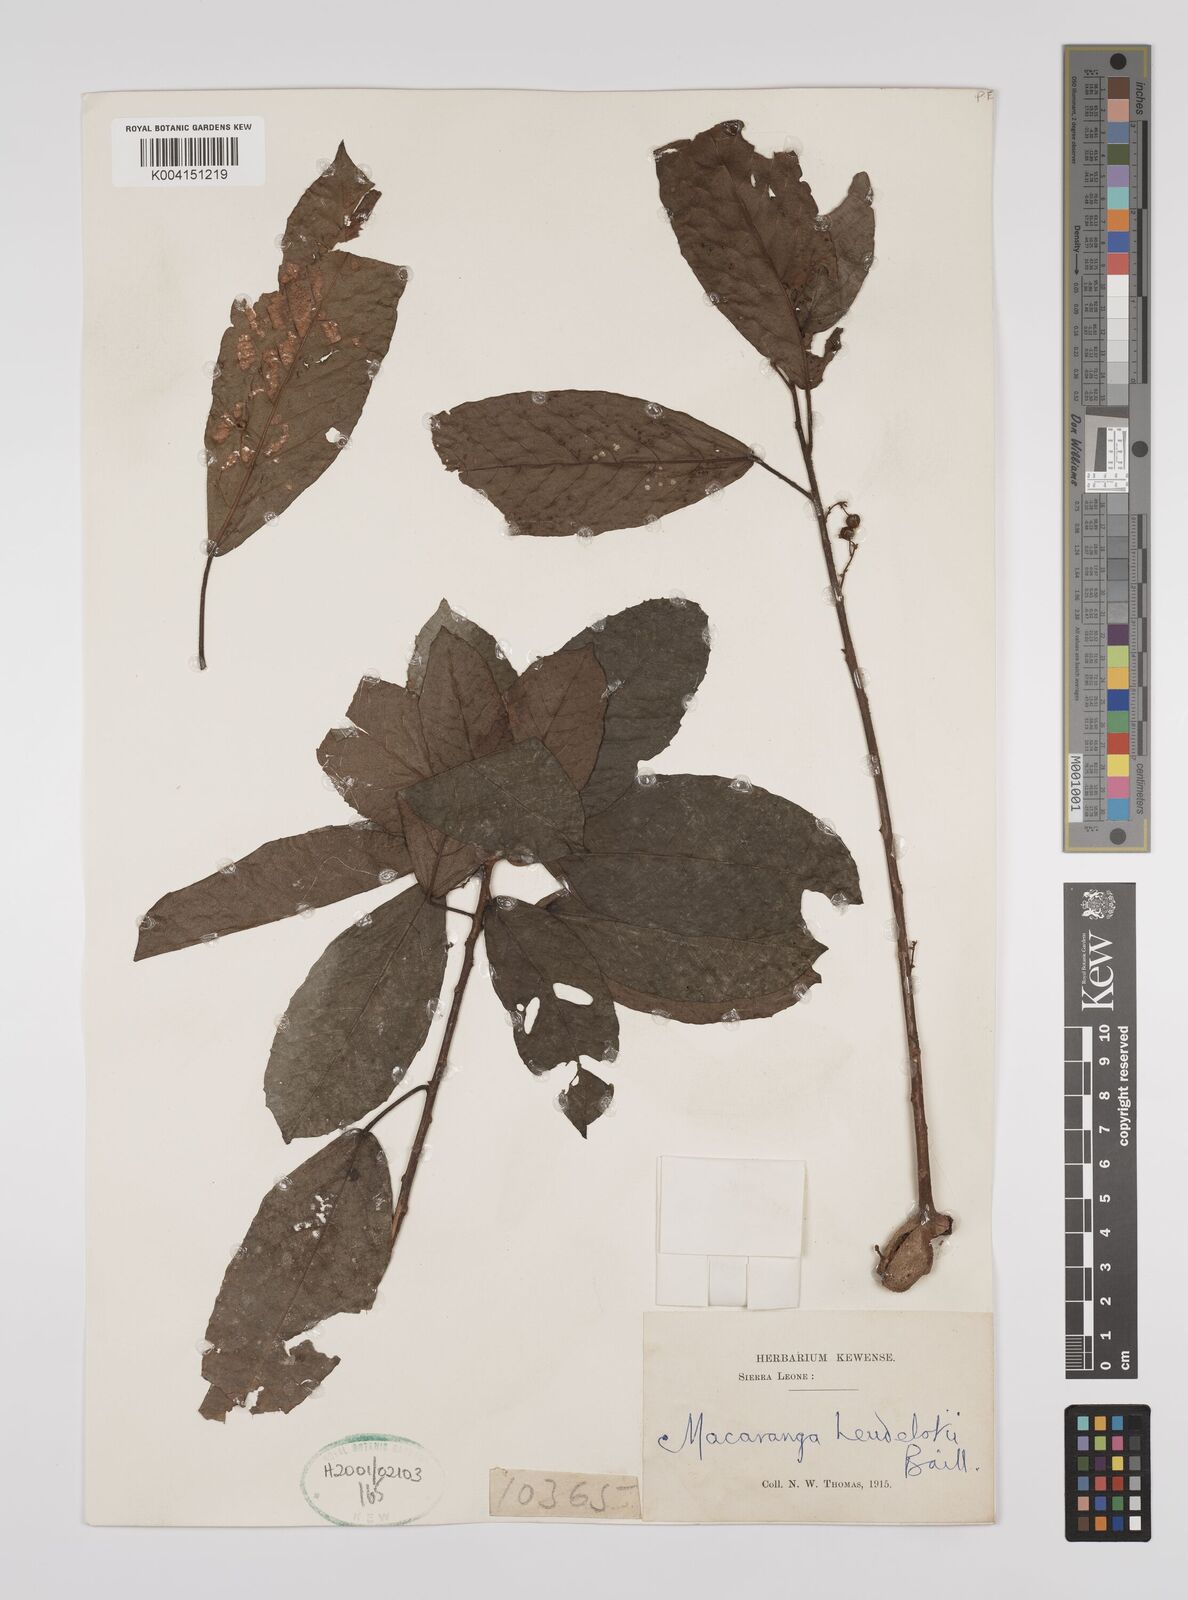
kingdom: Plantae
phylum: Tracheophyta
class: Magnoliopsida
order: Malpighiales
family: Euphorbiaceae
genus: Macaranga
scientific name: Macaranga heudelotii
